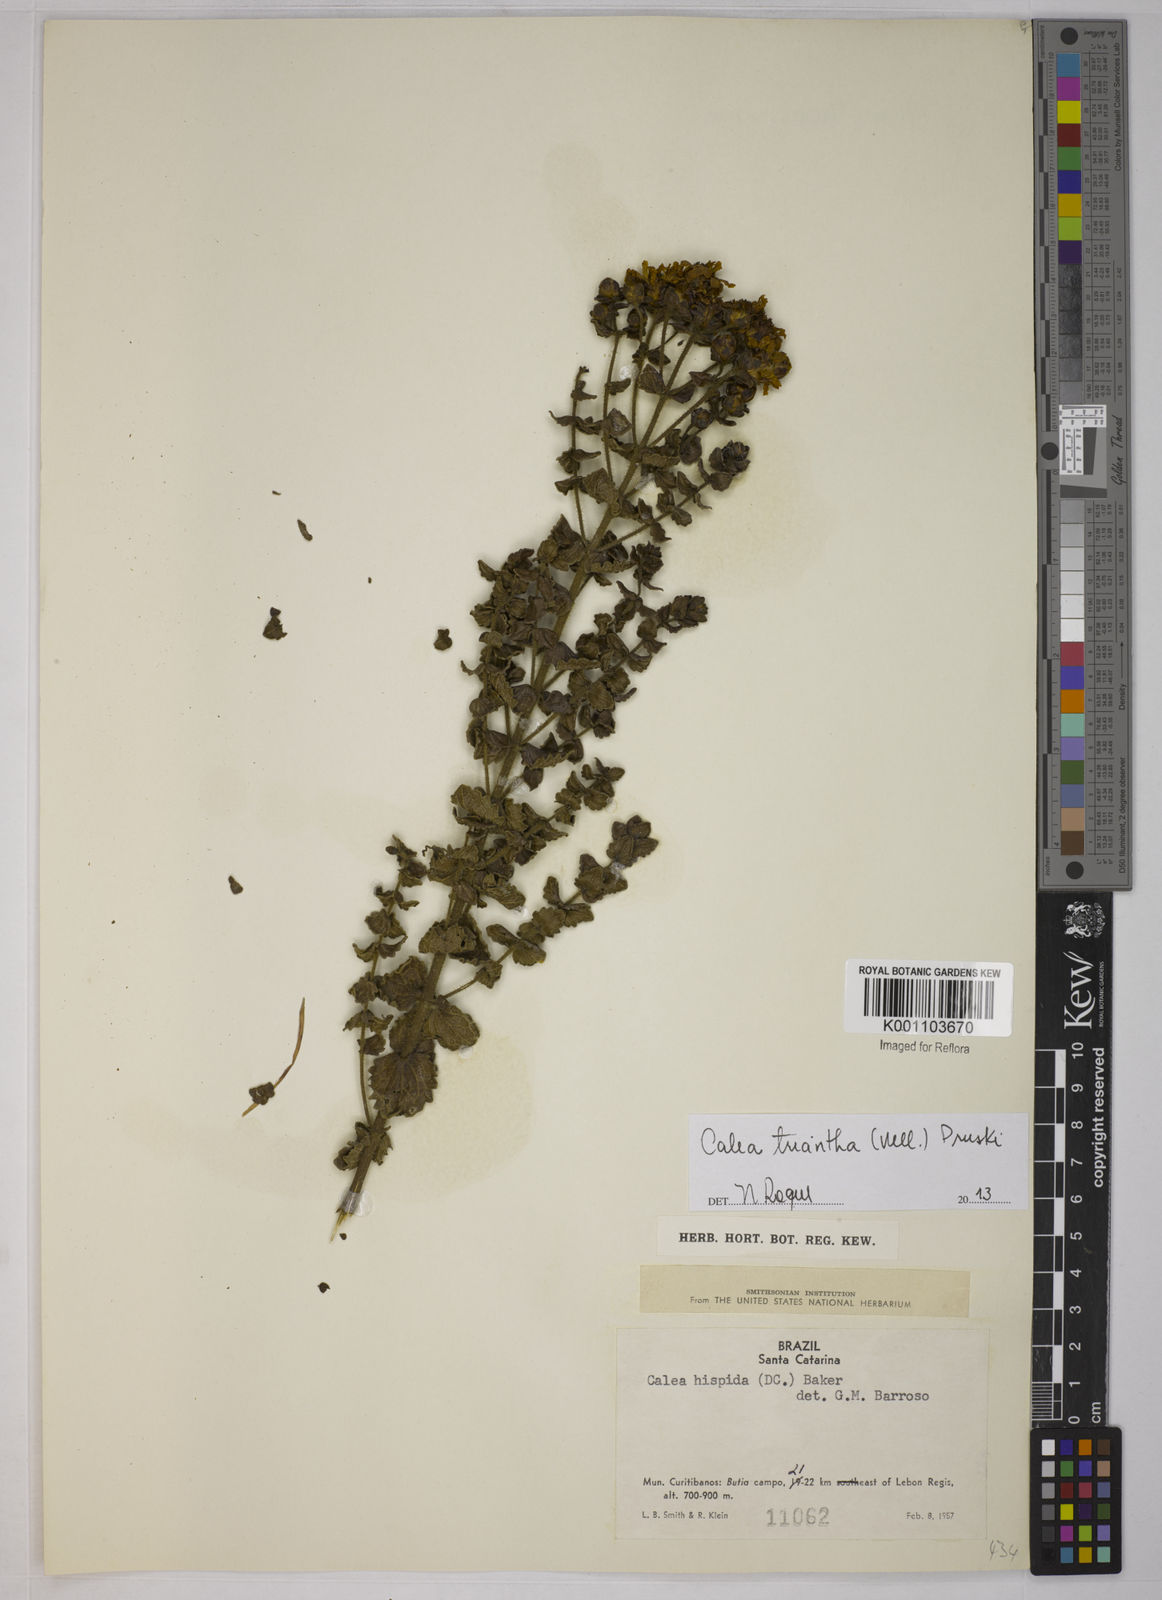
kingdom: Plantae
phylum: Tracheophyta
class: Magnoliopsida
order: Asterales
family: Asteraceae
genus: Calea
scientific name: Calea triantha
